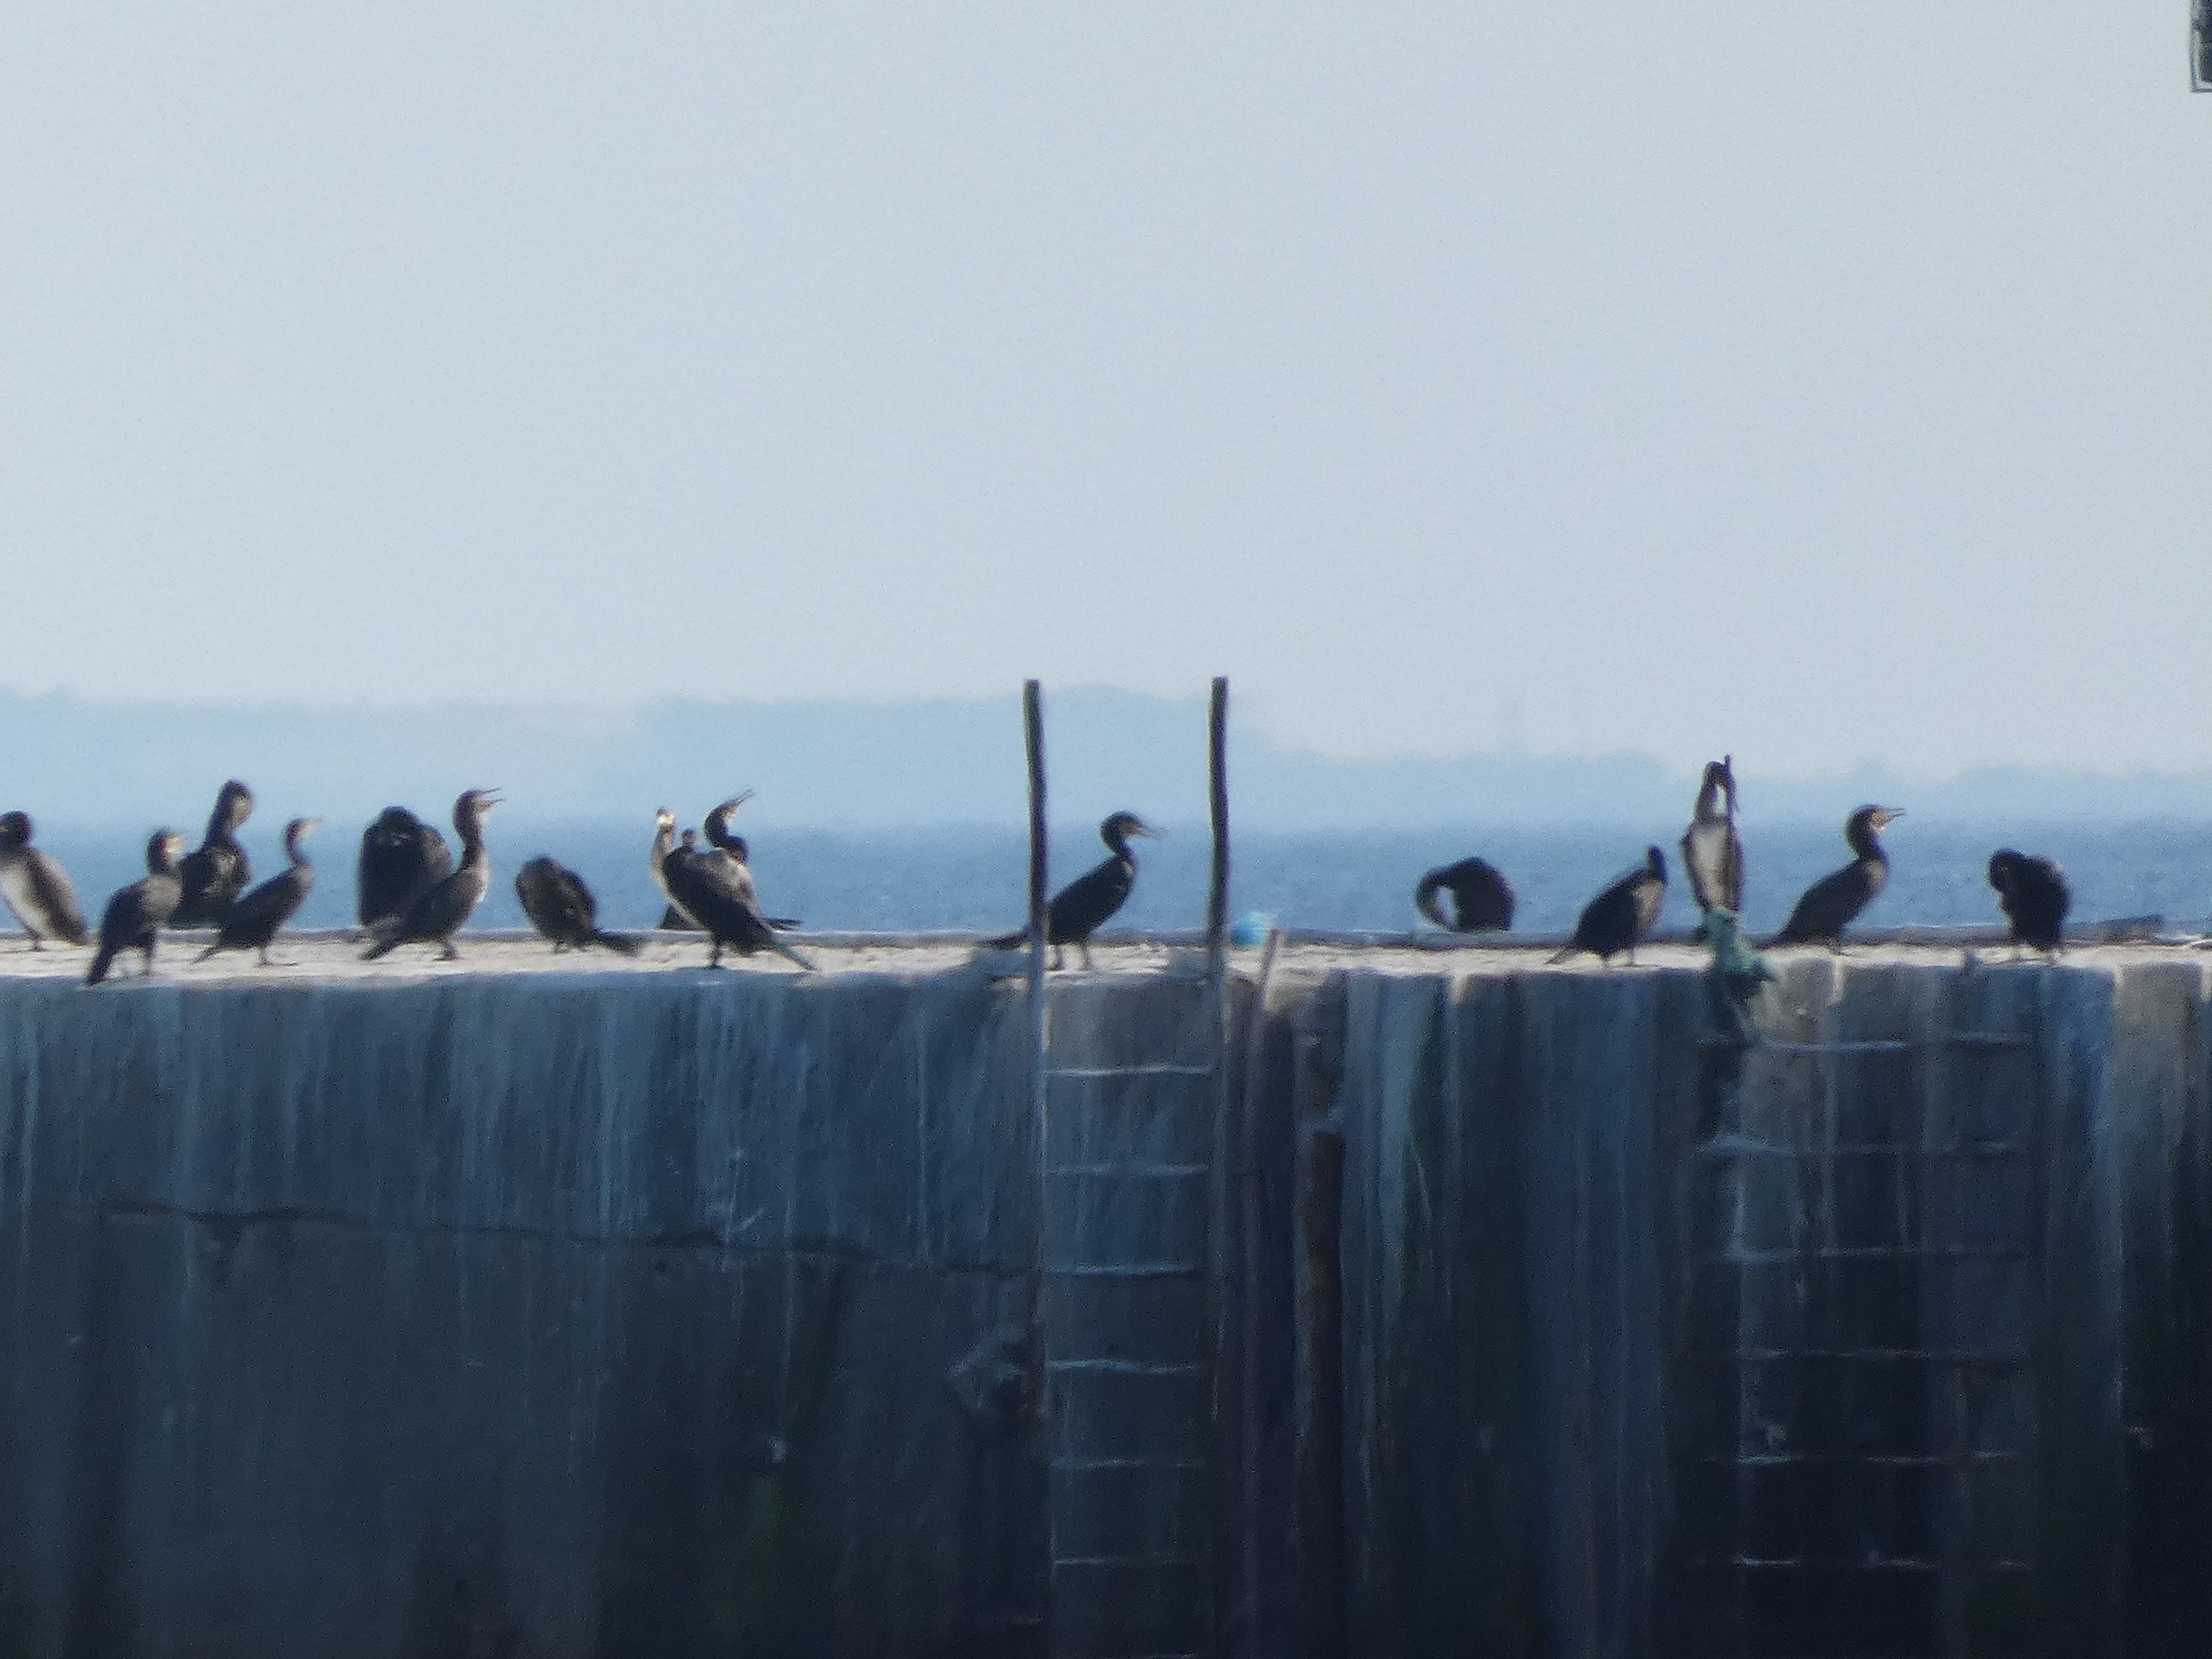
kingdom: Animalia
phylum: Chordata
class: Aves
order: Suliformes
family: Phalacrocoracidae
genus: Phalacrocorax
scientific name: Phalacrocorax carbo
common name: Skarv
